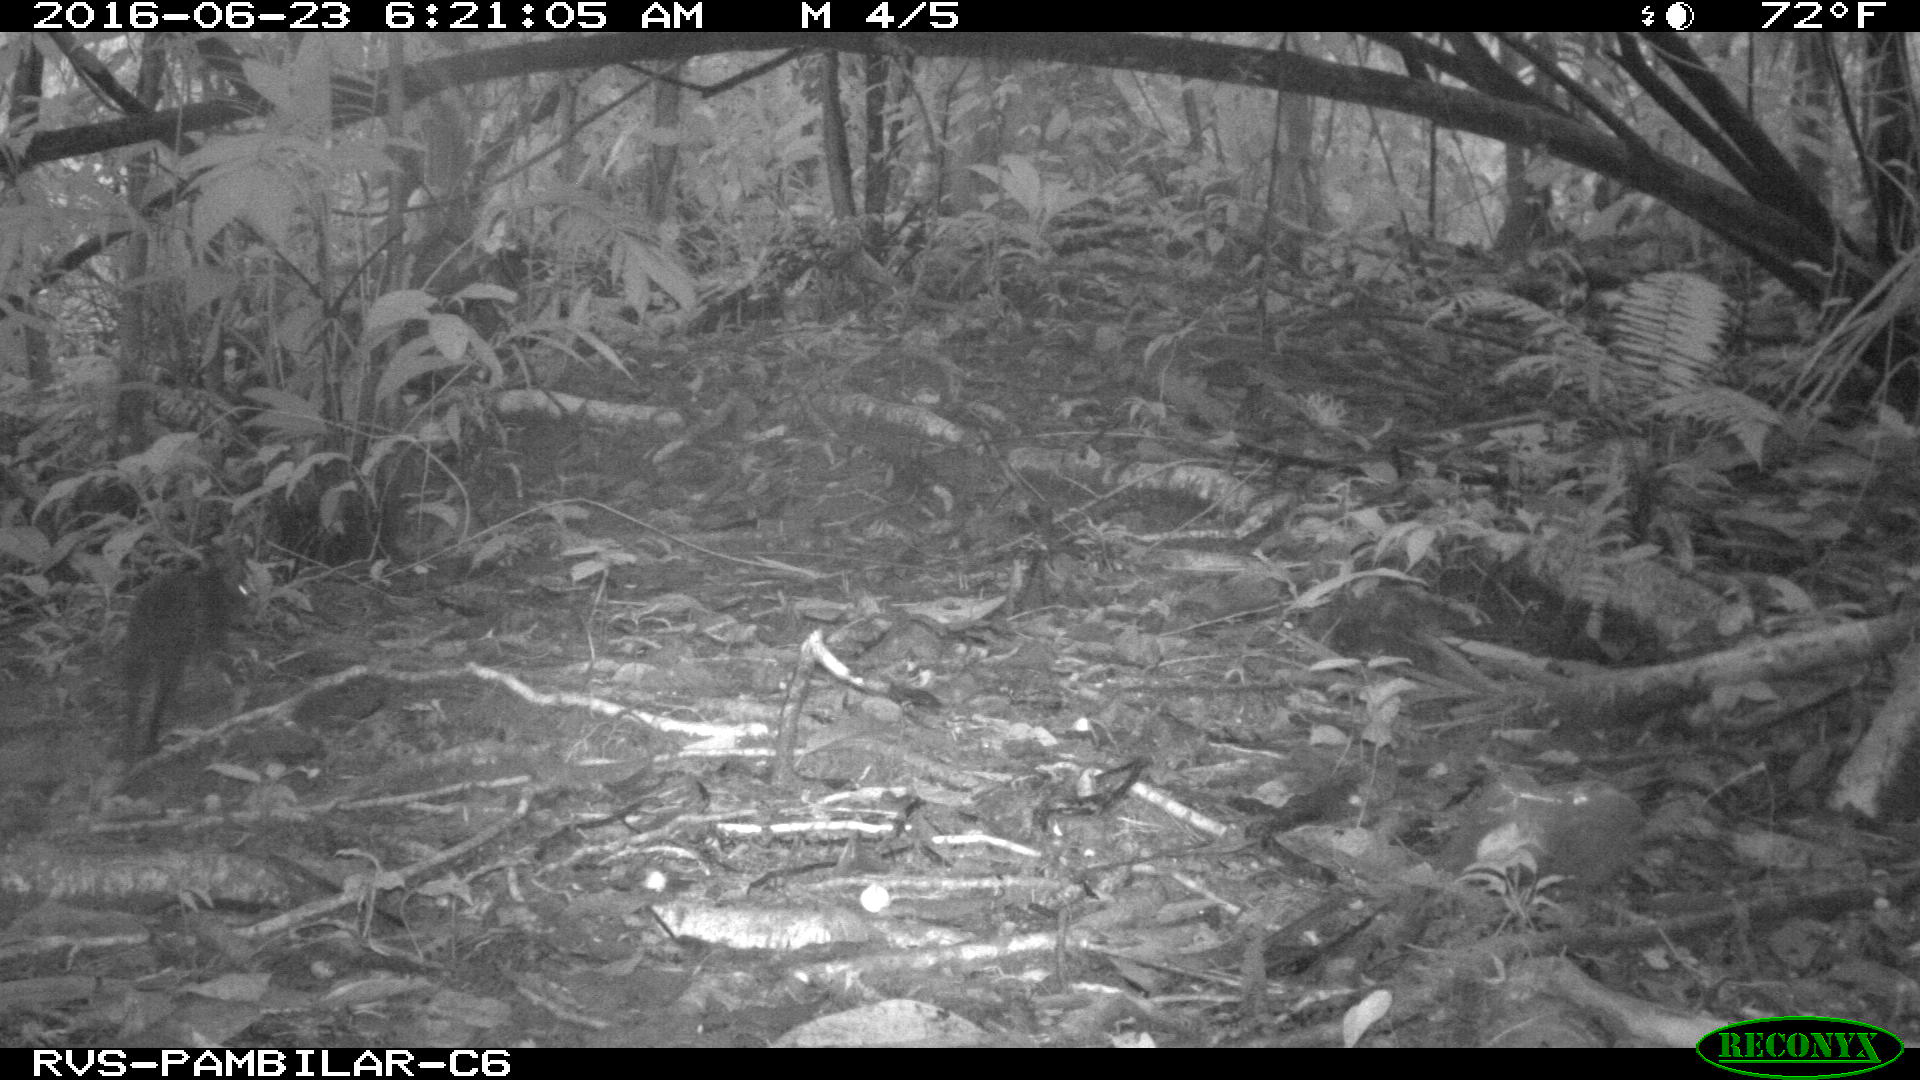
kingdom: Animalia
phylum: Chordata
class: Mammalia
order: Rodentia
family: Dasyproctidae
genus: Dasyprocta
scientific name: Dasyprocta punctata
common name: Central american agouti
